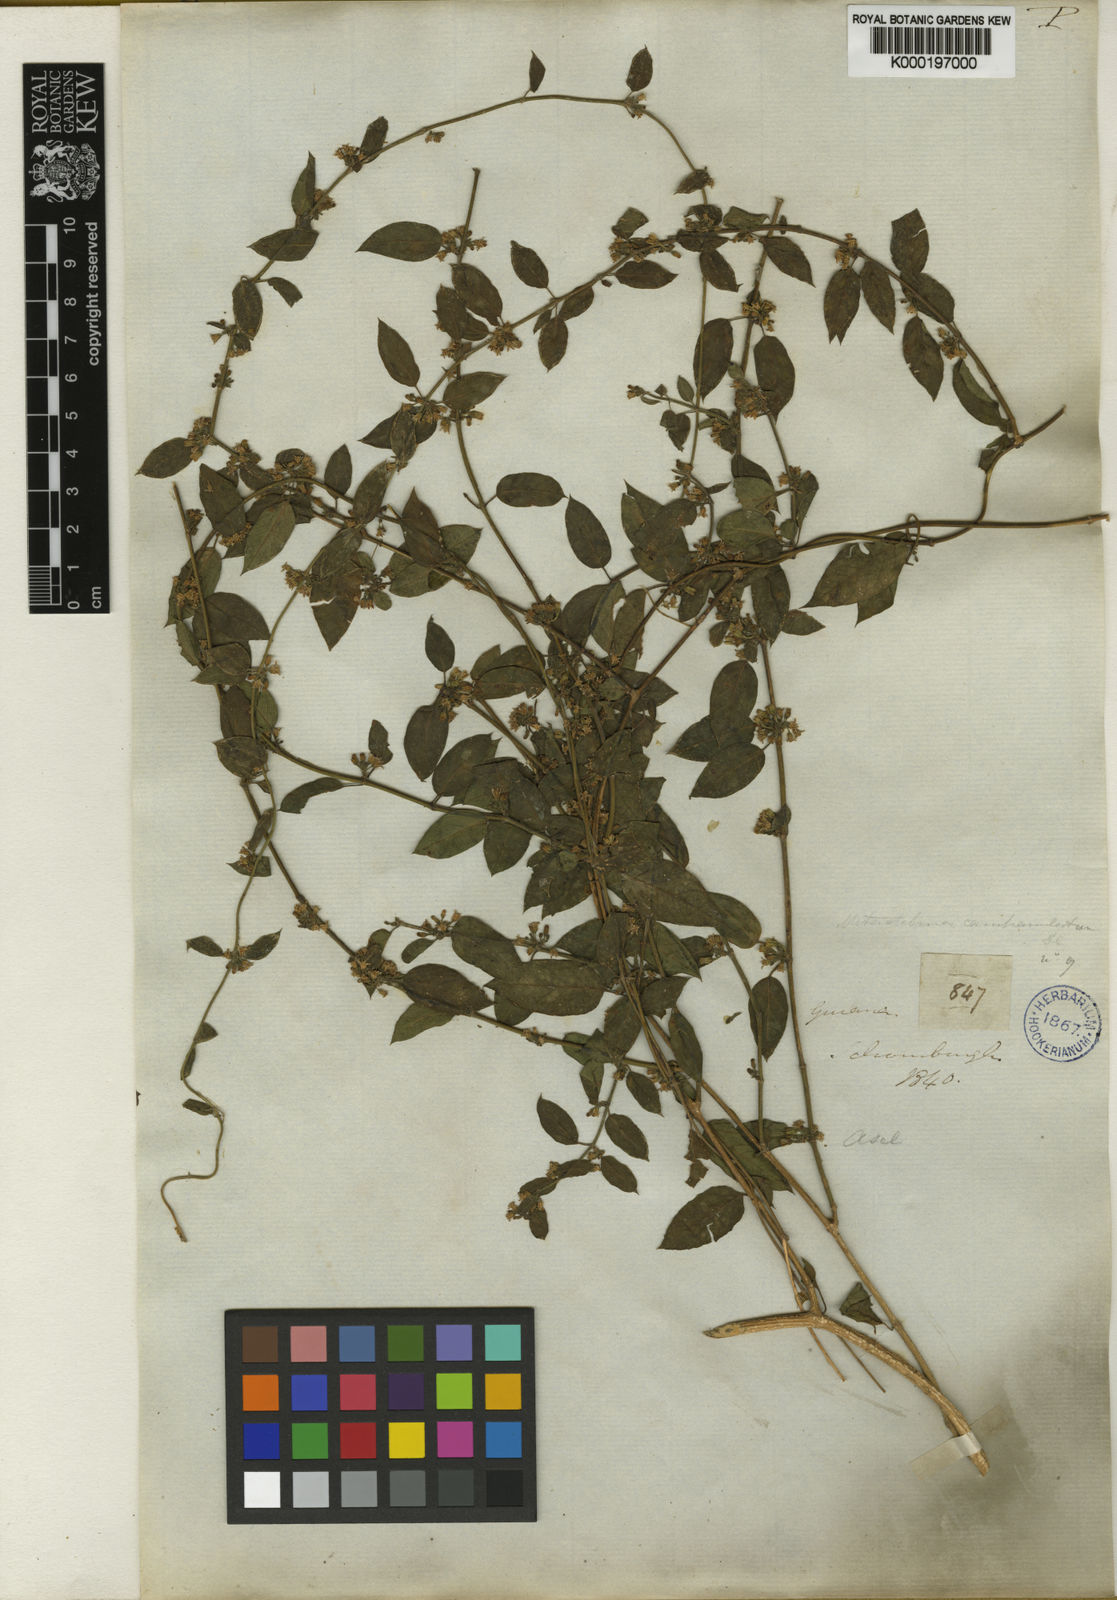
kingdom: Plantae
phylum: Tracheophyta
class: Magnoliopsida
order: Gentianales
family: Apocynaceae
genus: Metastelma
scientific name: Metastelma parviflorum
